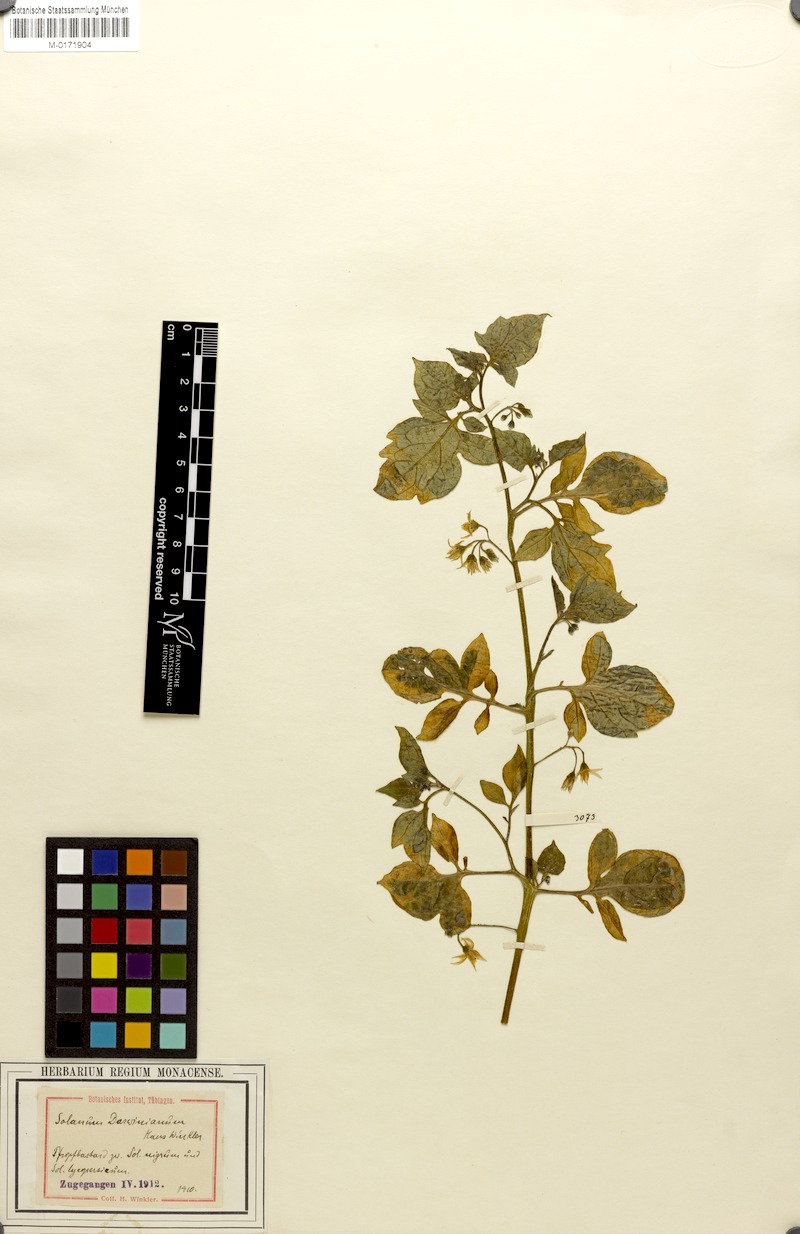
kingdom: Plantae
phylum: Tracheophyta
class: Magnoliopsida
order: Solanales
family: Solanaceae
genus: Solanum
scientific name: Solanum lycopersicum
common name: Garden tomato
